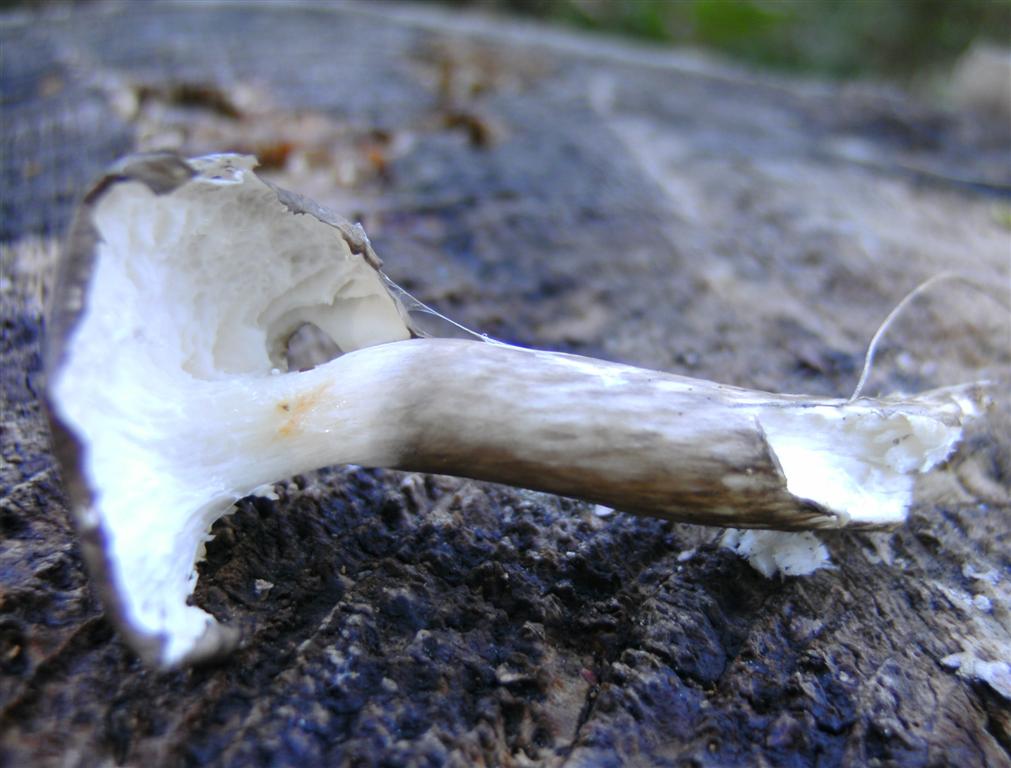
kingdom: Fungi
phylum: Basidiomycota
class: Agaricomycetes
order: Agaricales
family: Hygrophoraceae
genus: Hygrophorus
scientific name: Hygrophorus olivaceoalbus
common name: hvidbrun sneglehat
